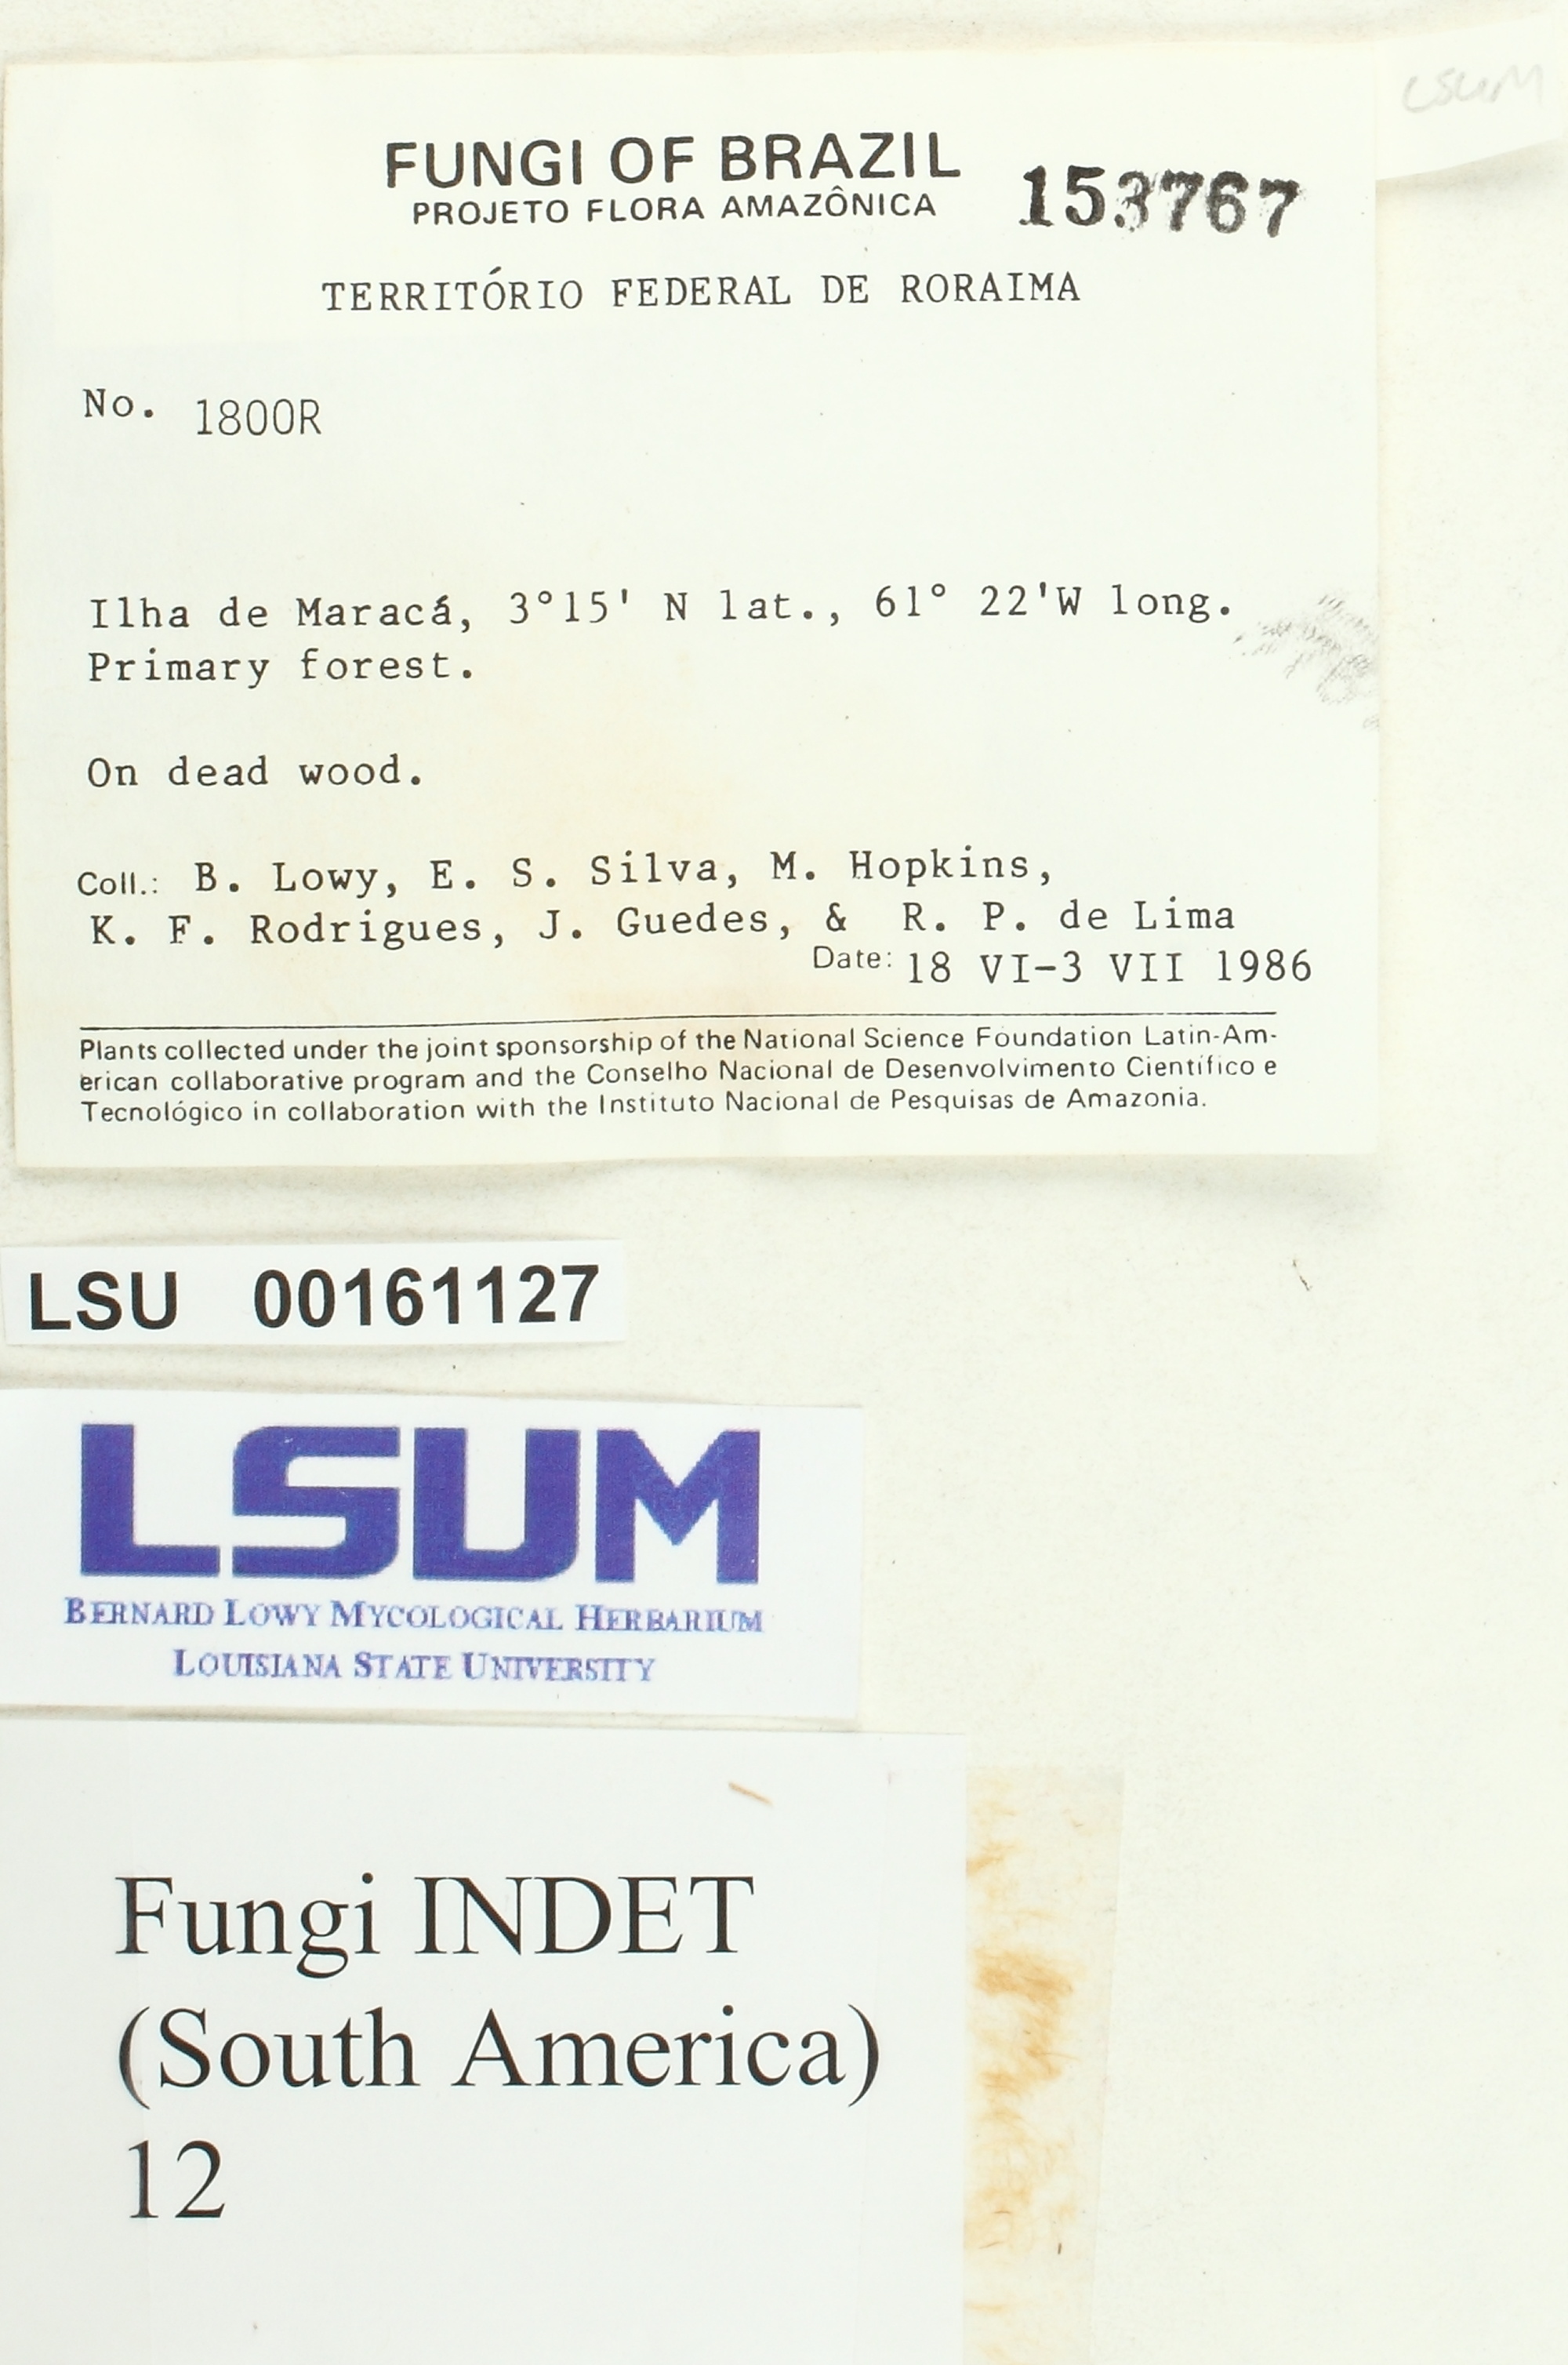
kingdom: Fungi
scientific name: Fungi
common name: Fungi
